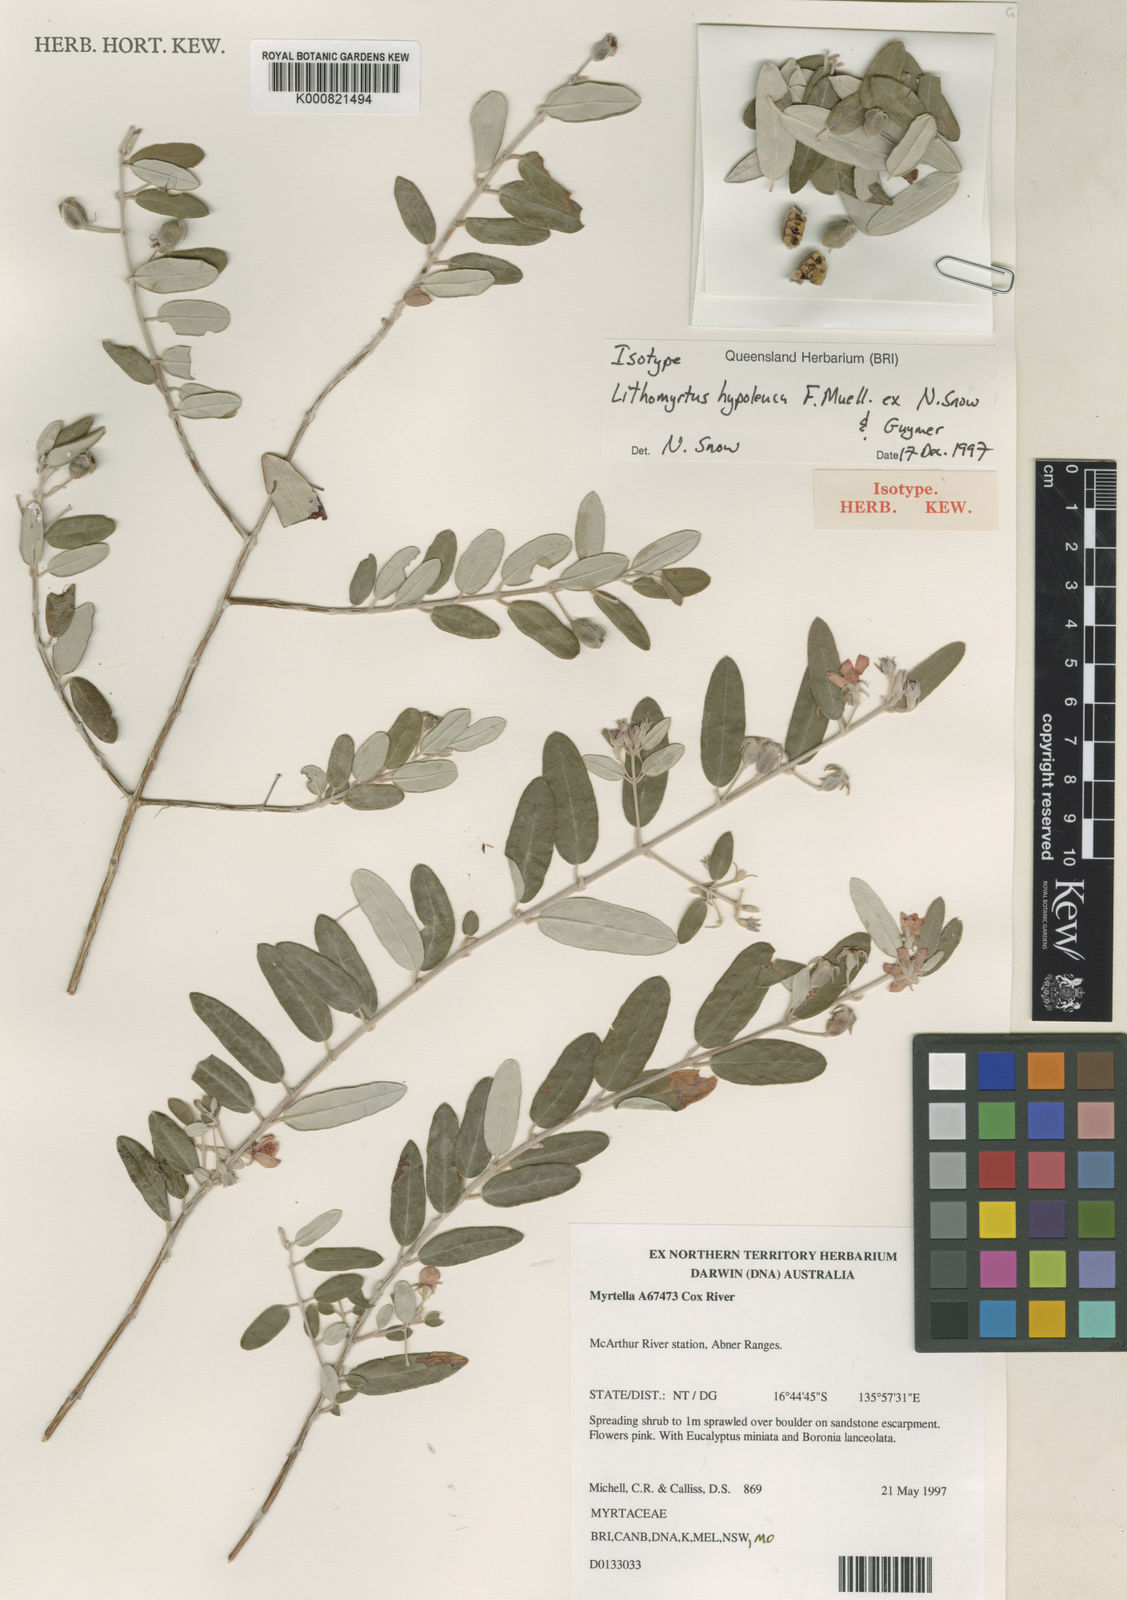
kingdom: Plantae
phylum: Tracheophyta
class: Magnoliopsida
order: Myrtales
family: Myrtaceae
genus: Lithomyrtus
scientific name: Lithomyrtus hypoleuca
